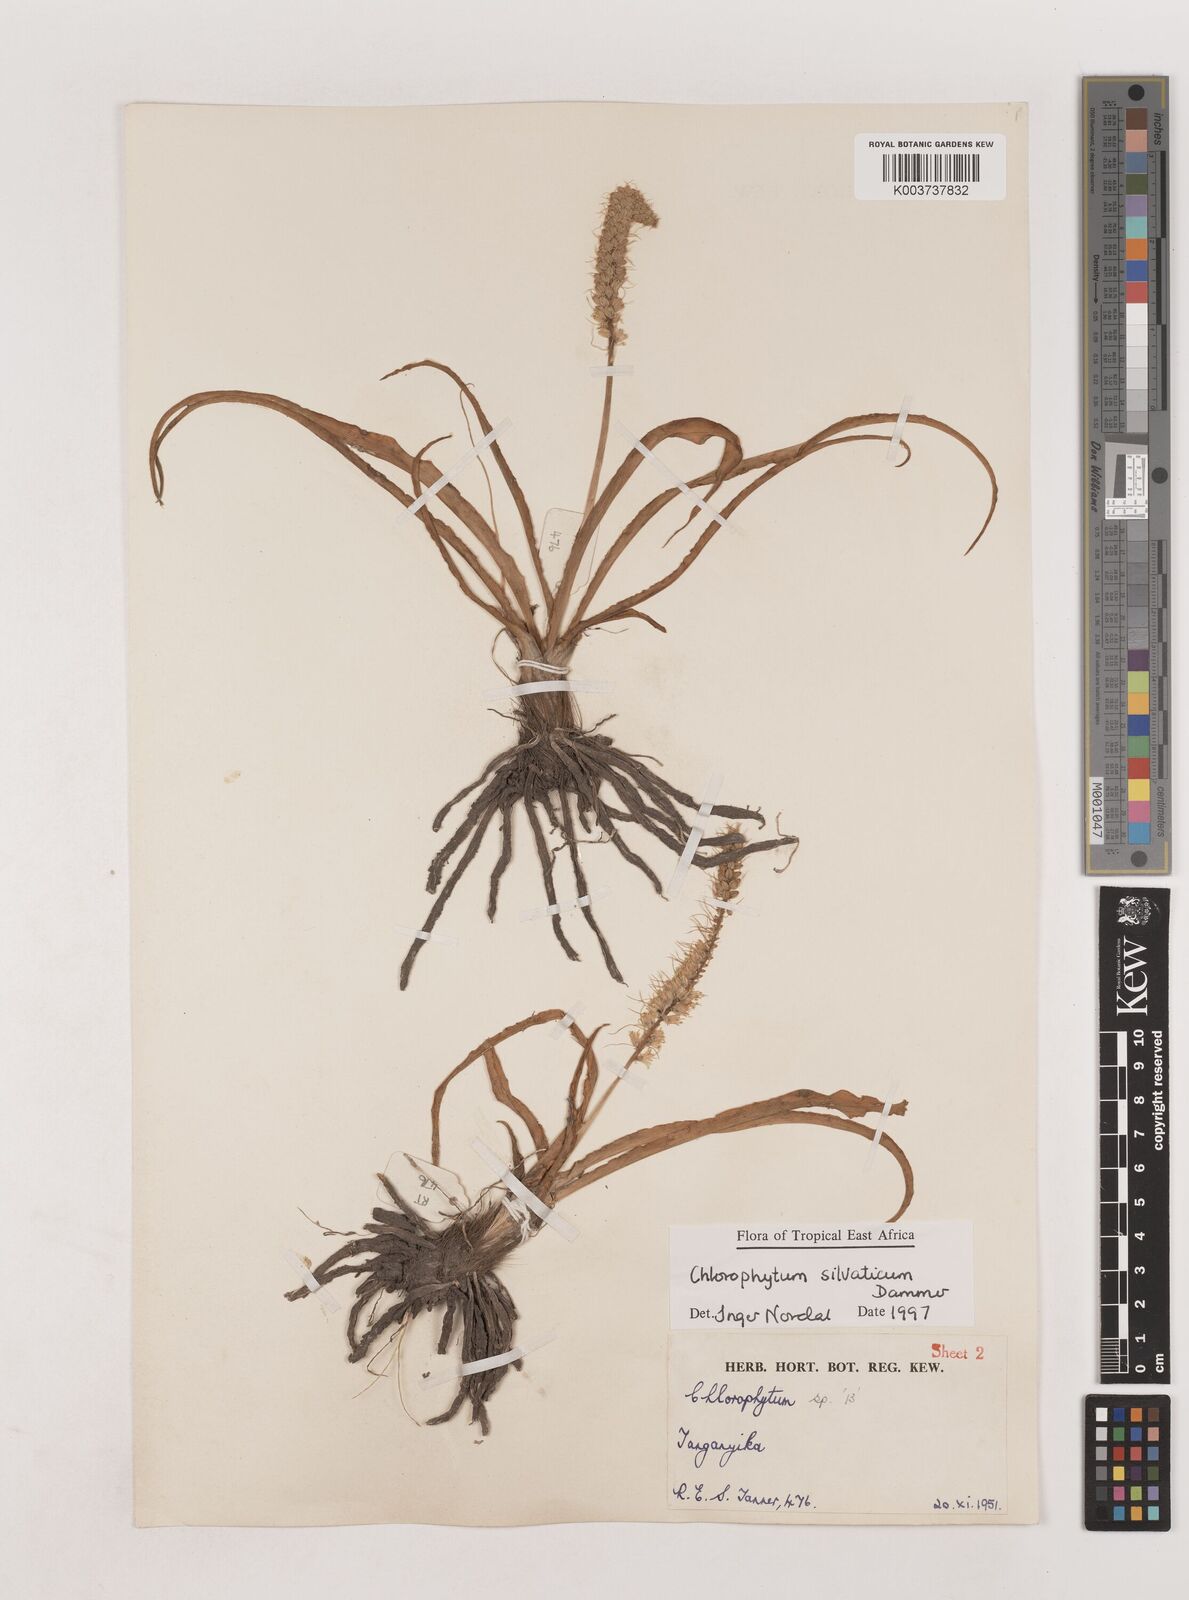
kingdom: Plantae
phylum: Tracheophyta
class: Liliopsida
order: Asparagales
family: Asparagaceae
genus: Chlorophytum
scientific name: Chlorophytum africanum
